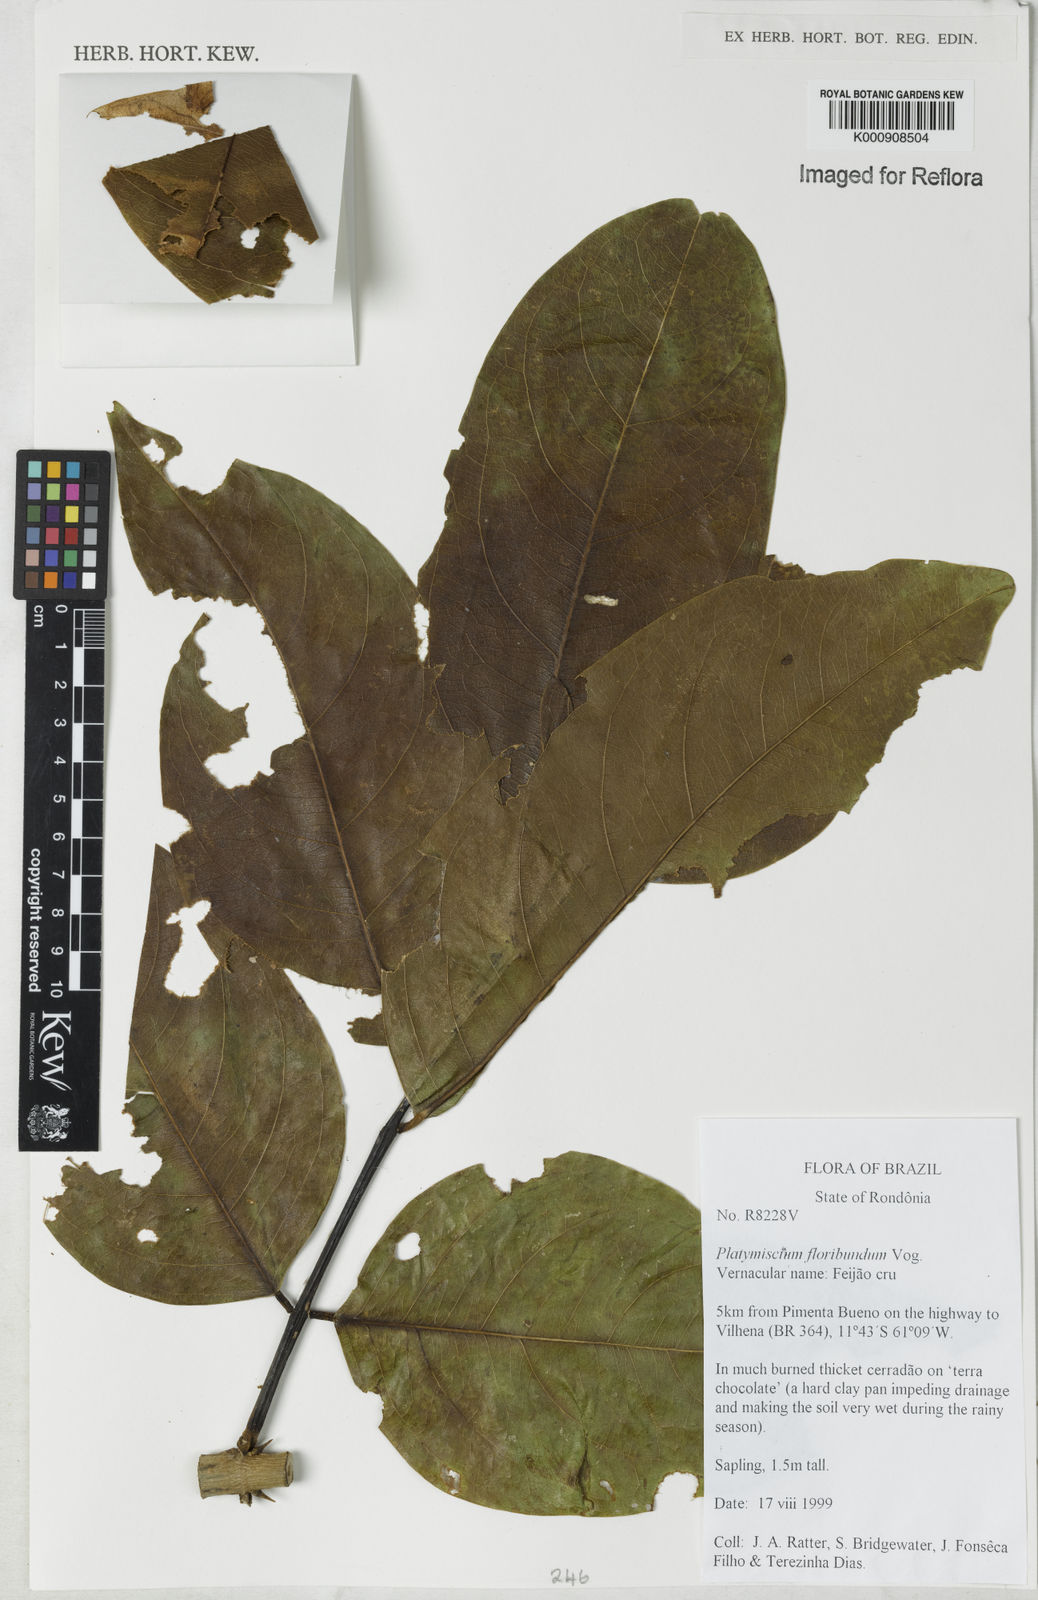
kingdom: Plantae
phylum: Tracheophyta
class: Magnoliopsida
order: Fabales
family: Fabaceae
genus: Platymiscium
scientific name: Platymiscium floribundum
